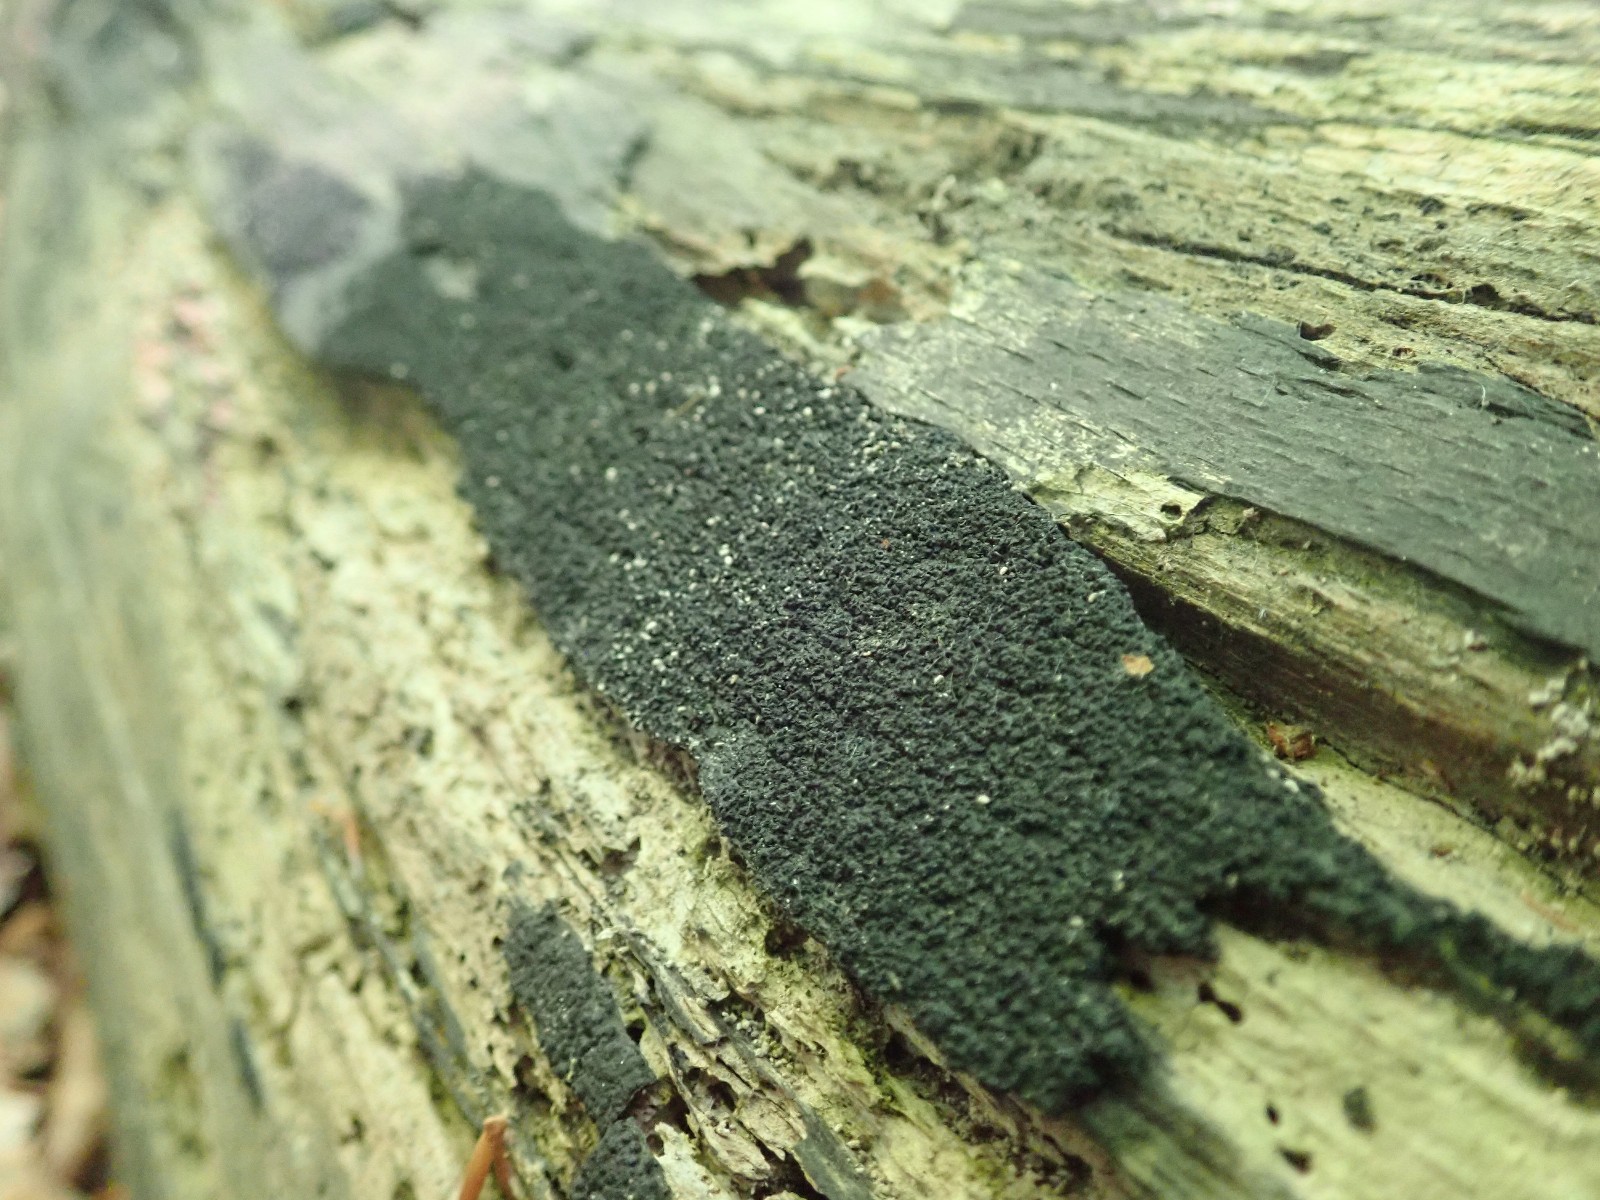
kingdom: Fungi
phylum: Ascomycota
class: Sordariomycetes
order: Xylariales
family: Diatrypaceae
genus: Eutypa
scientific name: Eutypa spinosa
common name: grov kulskorpe
